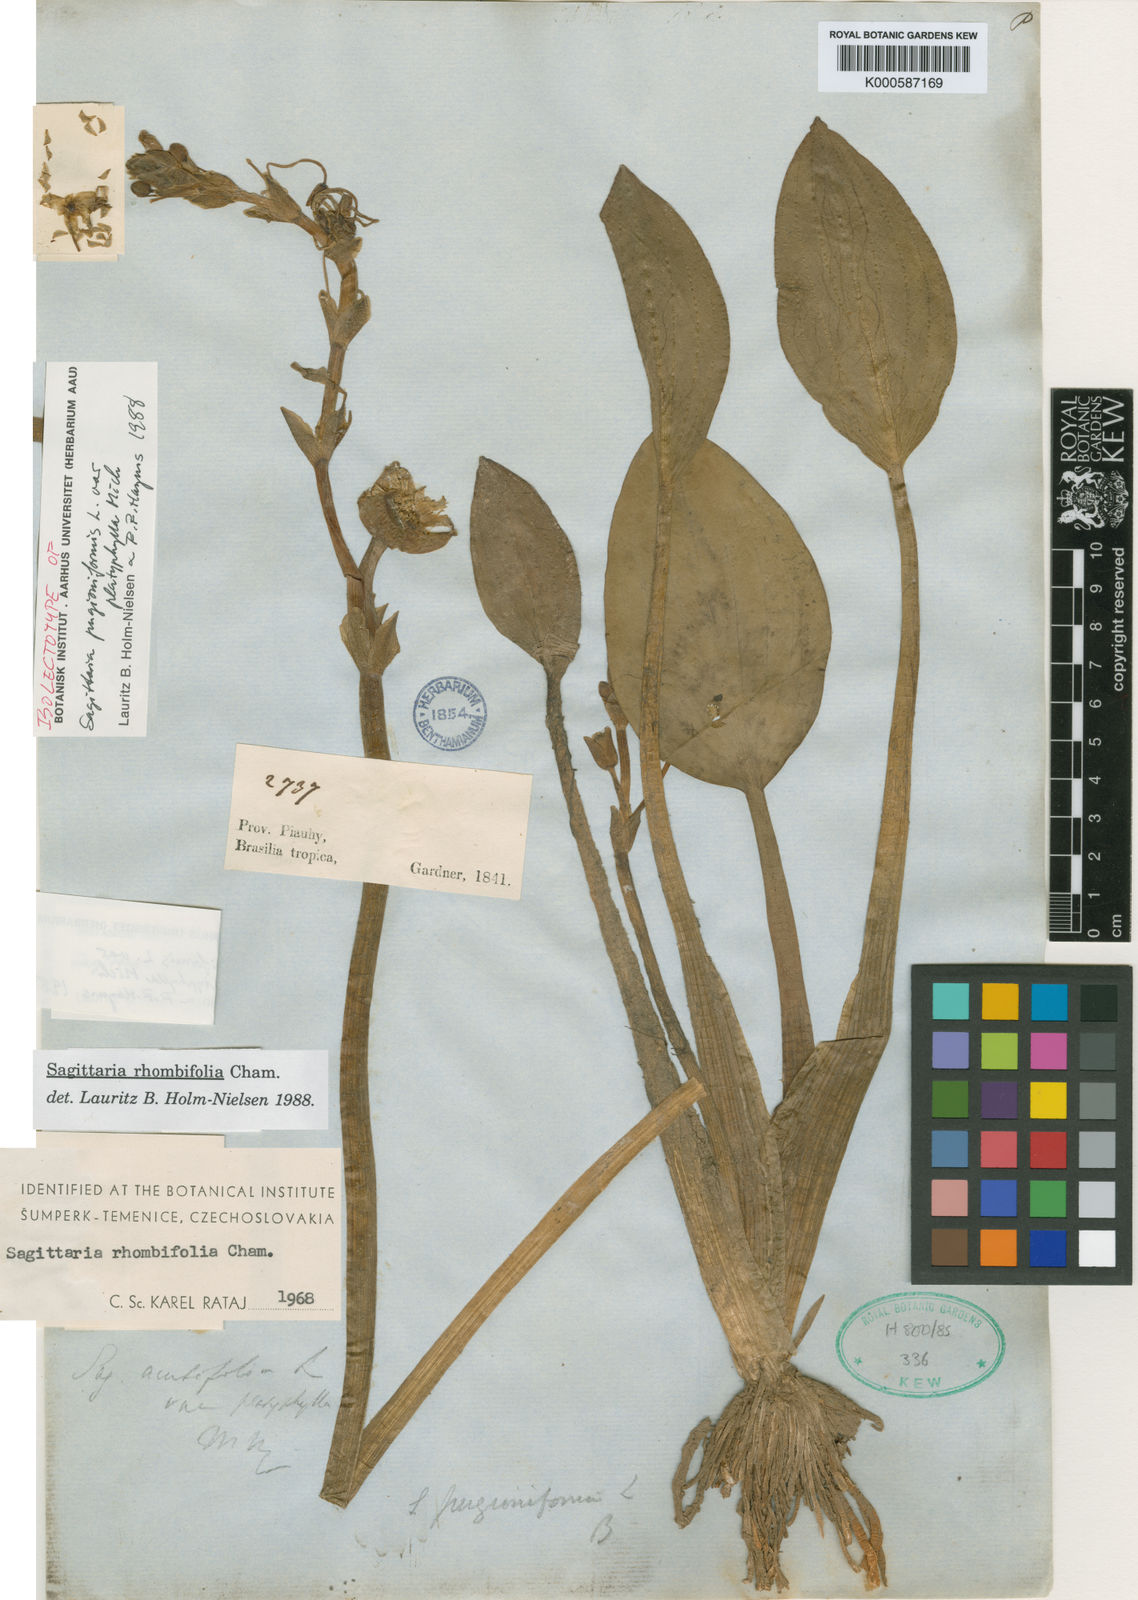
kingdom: Plantae
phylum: Tracheophyta
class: Liliopsida
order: Alismatales
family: Alismataceae
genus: Sagittaria
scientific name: Sagittaria rhombifolia
